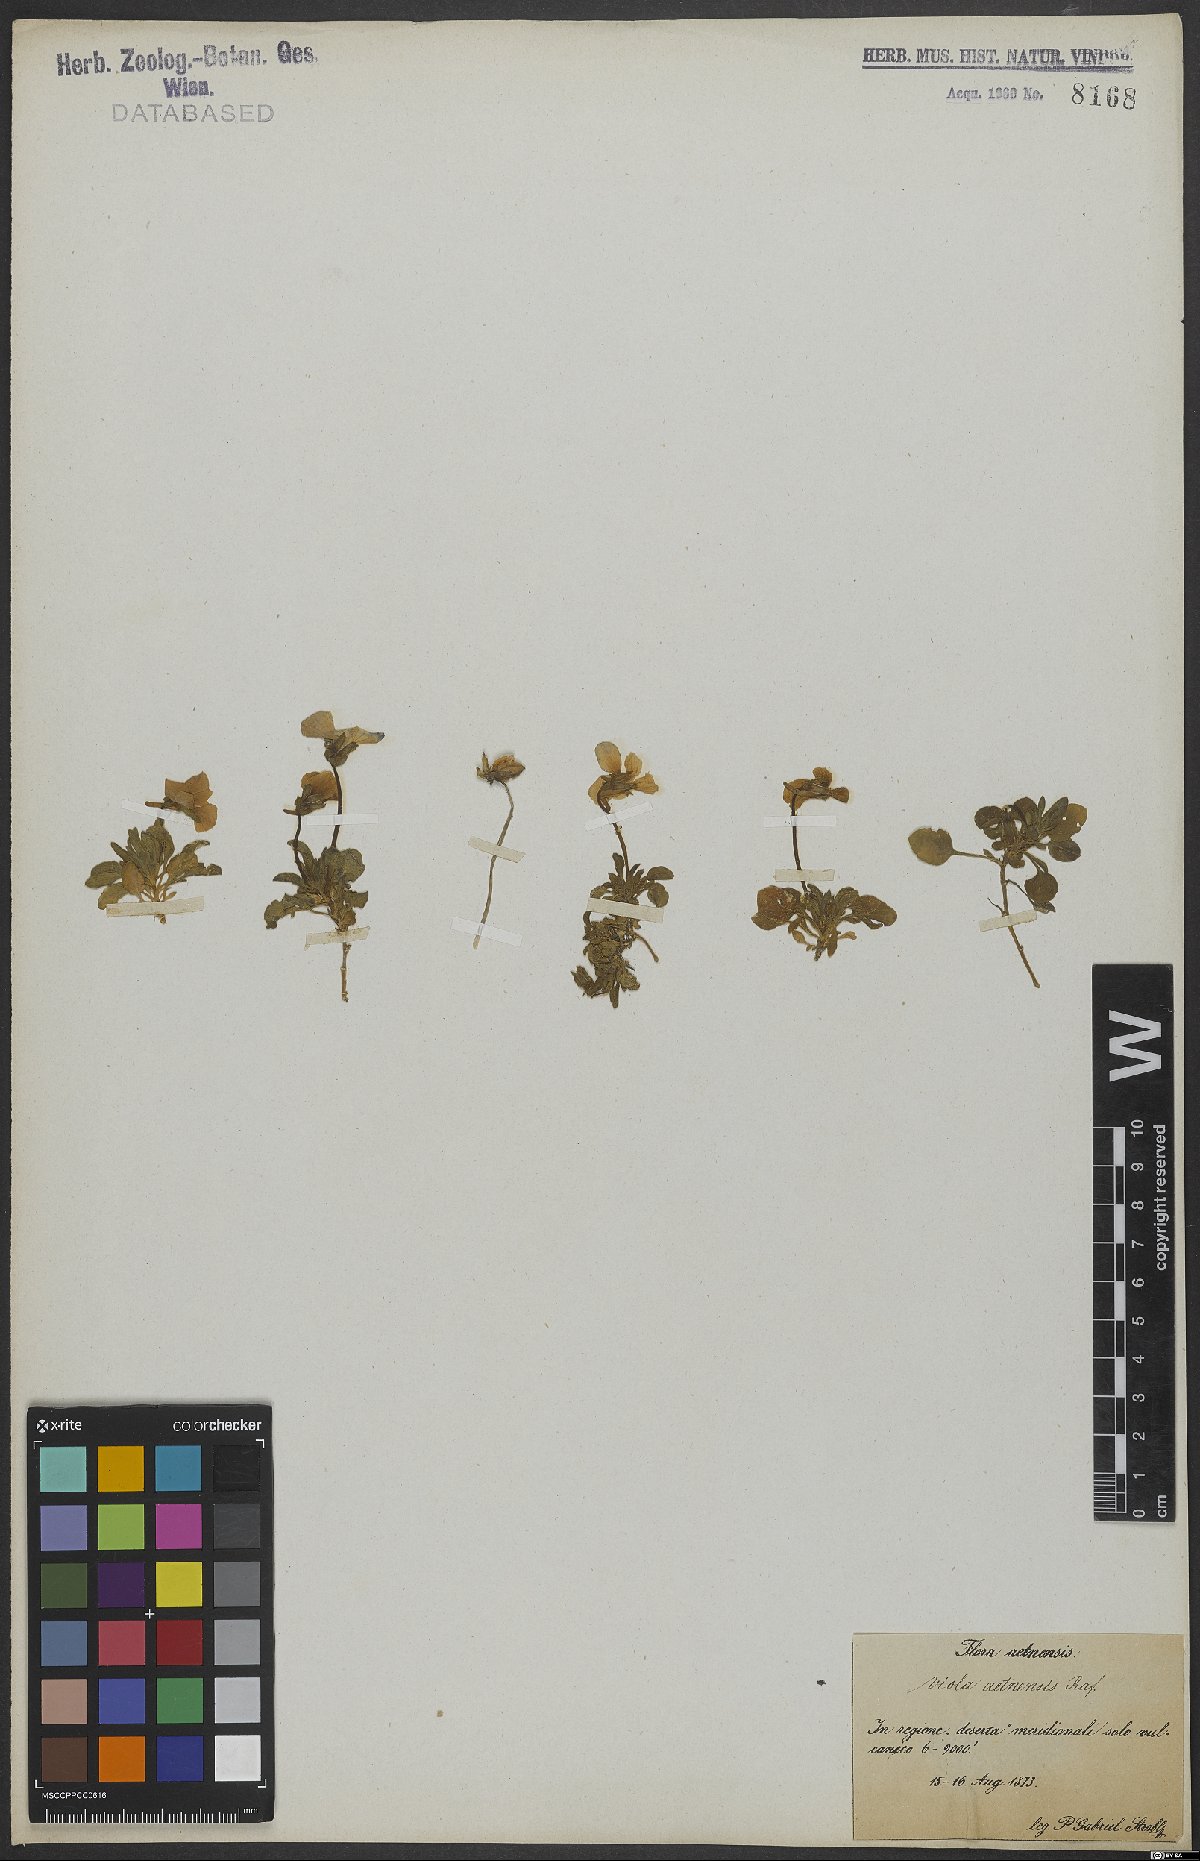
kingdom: Plantae
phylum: Tracheophyta
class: Magnoliopsida
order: Malpighiales
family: Violaceae
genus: Viola
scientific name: Viola aethnensis
